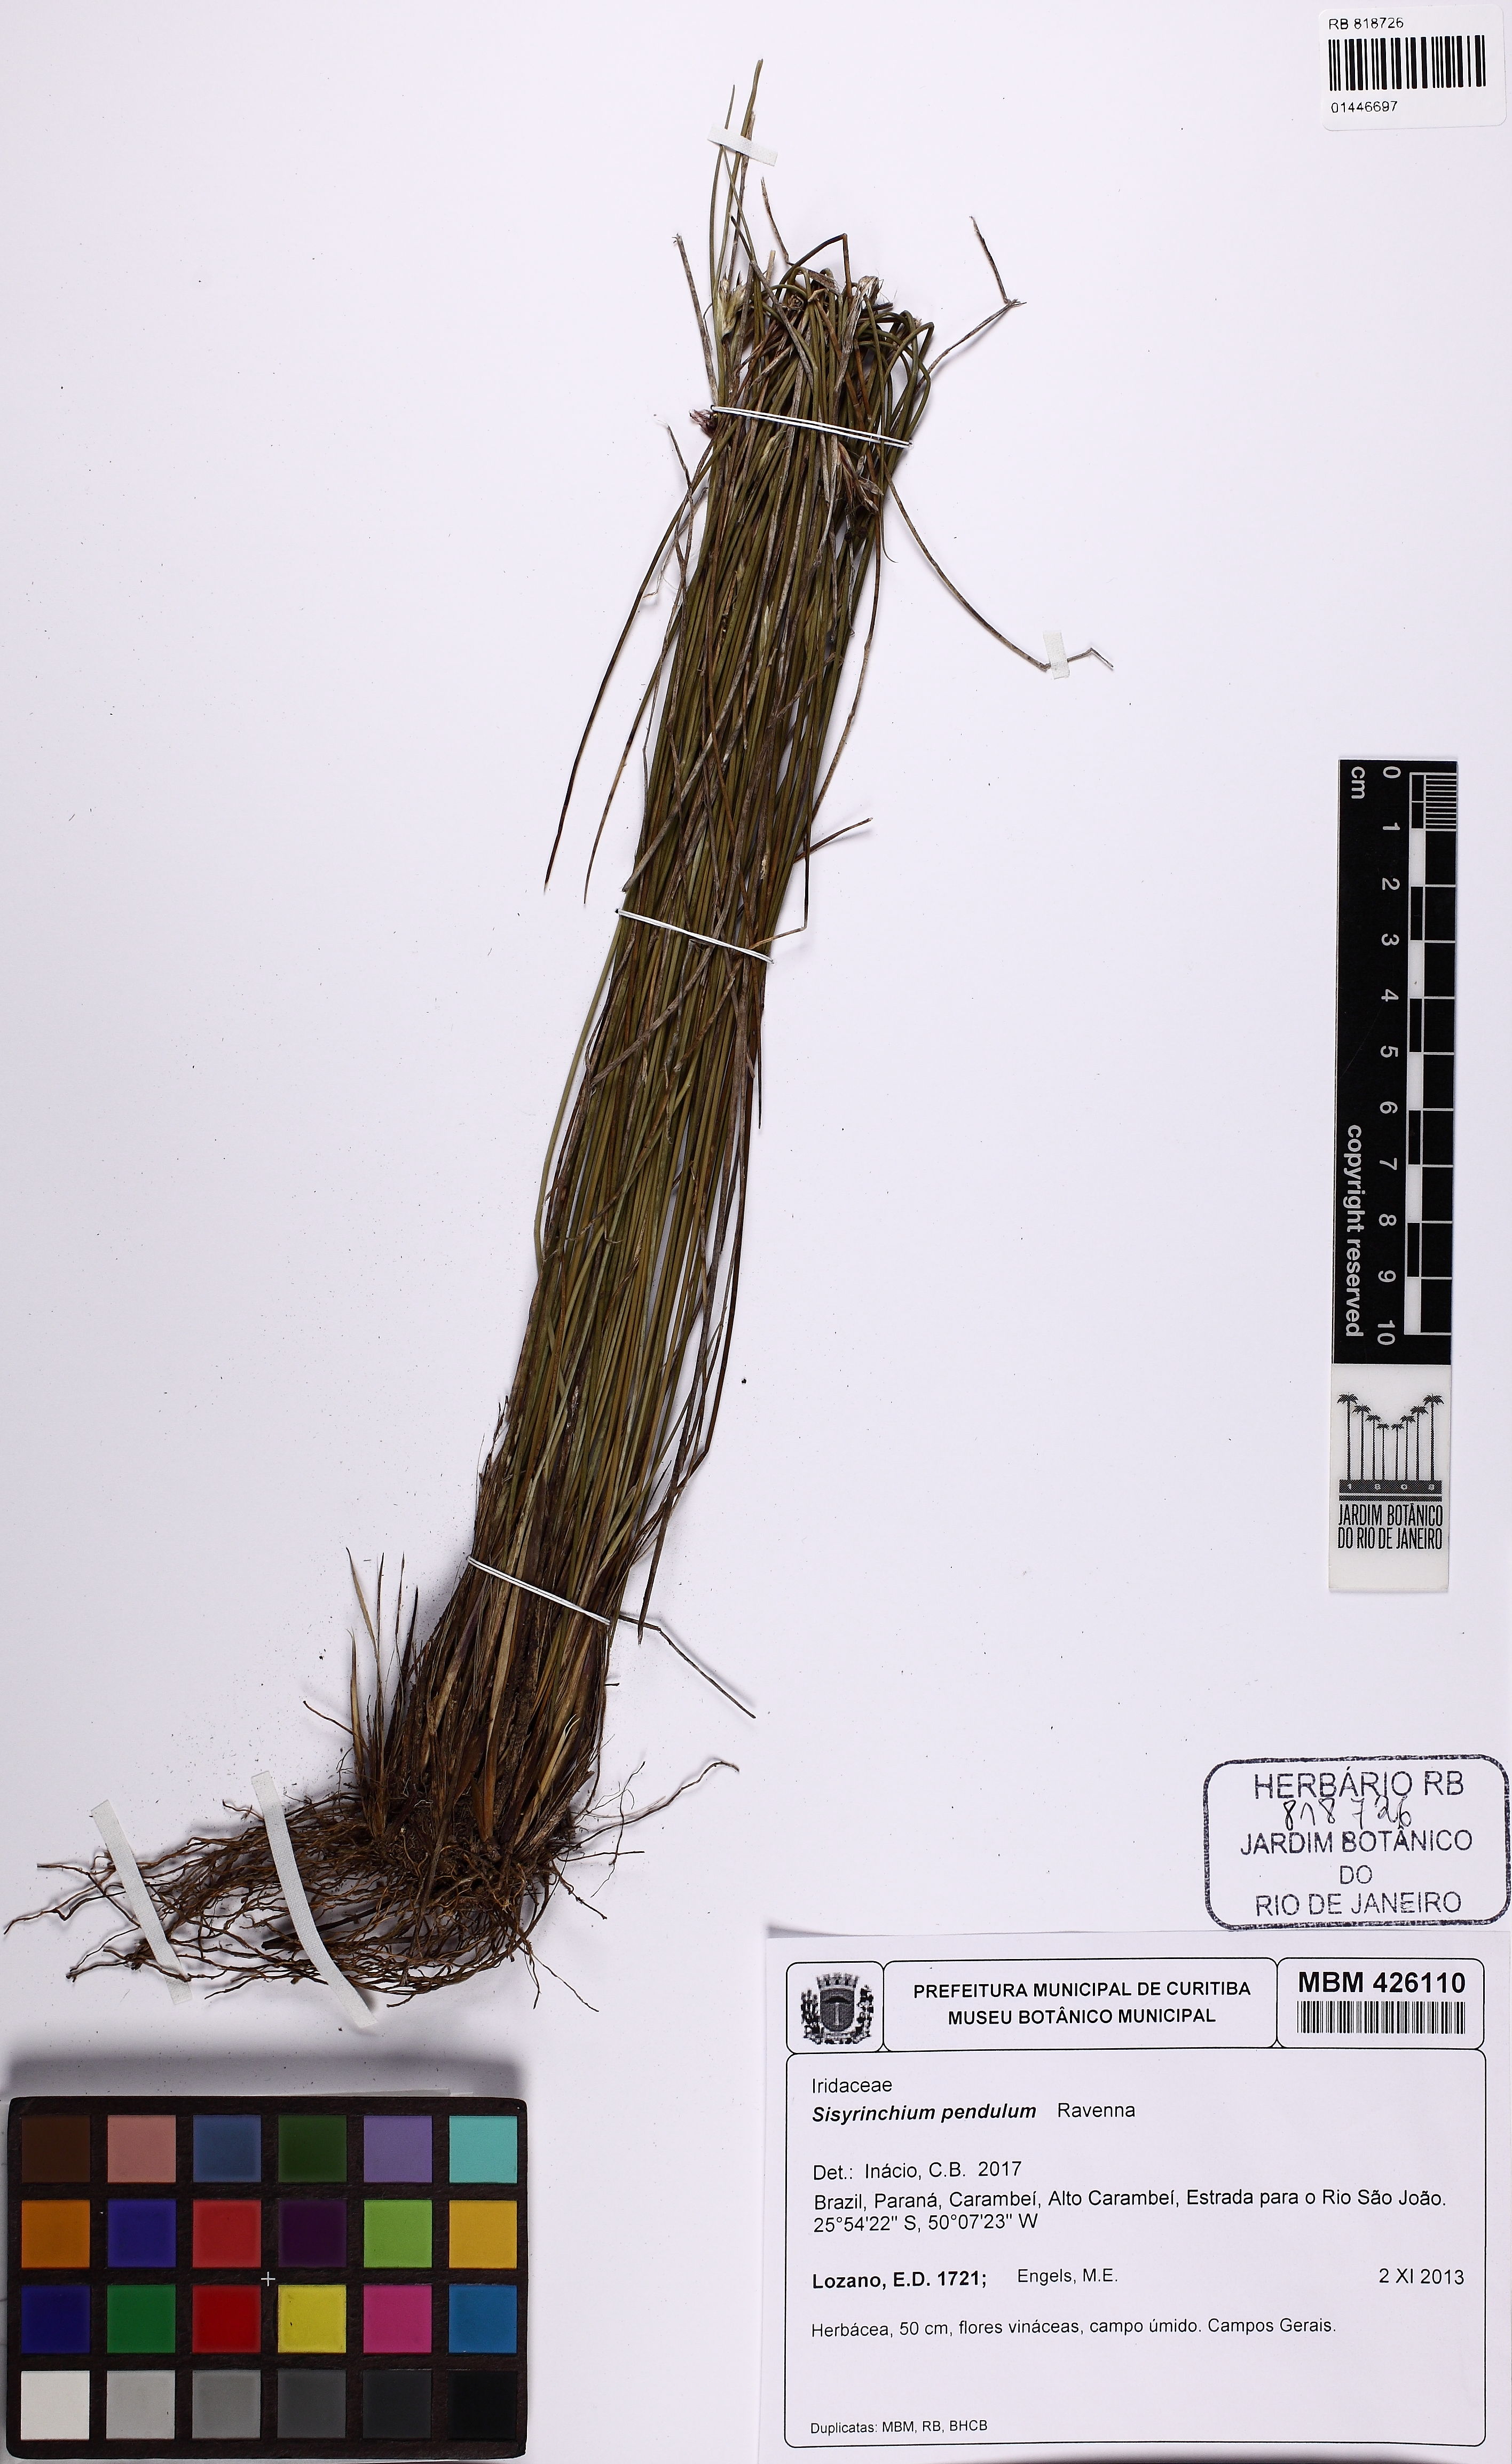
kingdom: Plantae
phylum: Tracheophyta
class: Liliopsida
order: Asparagales
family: Iridaceae
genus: Sisyrinchium
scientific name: Sisyrinchium pendulum
